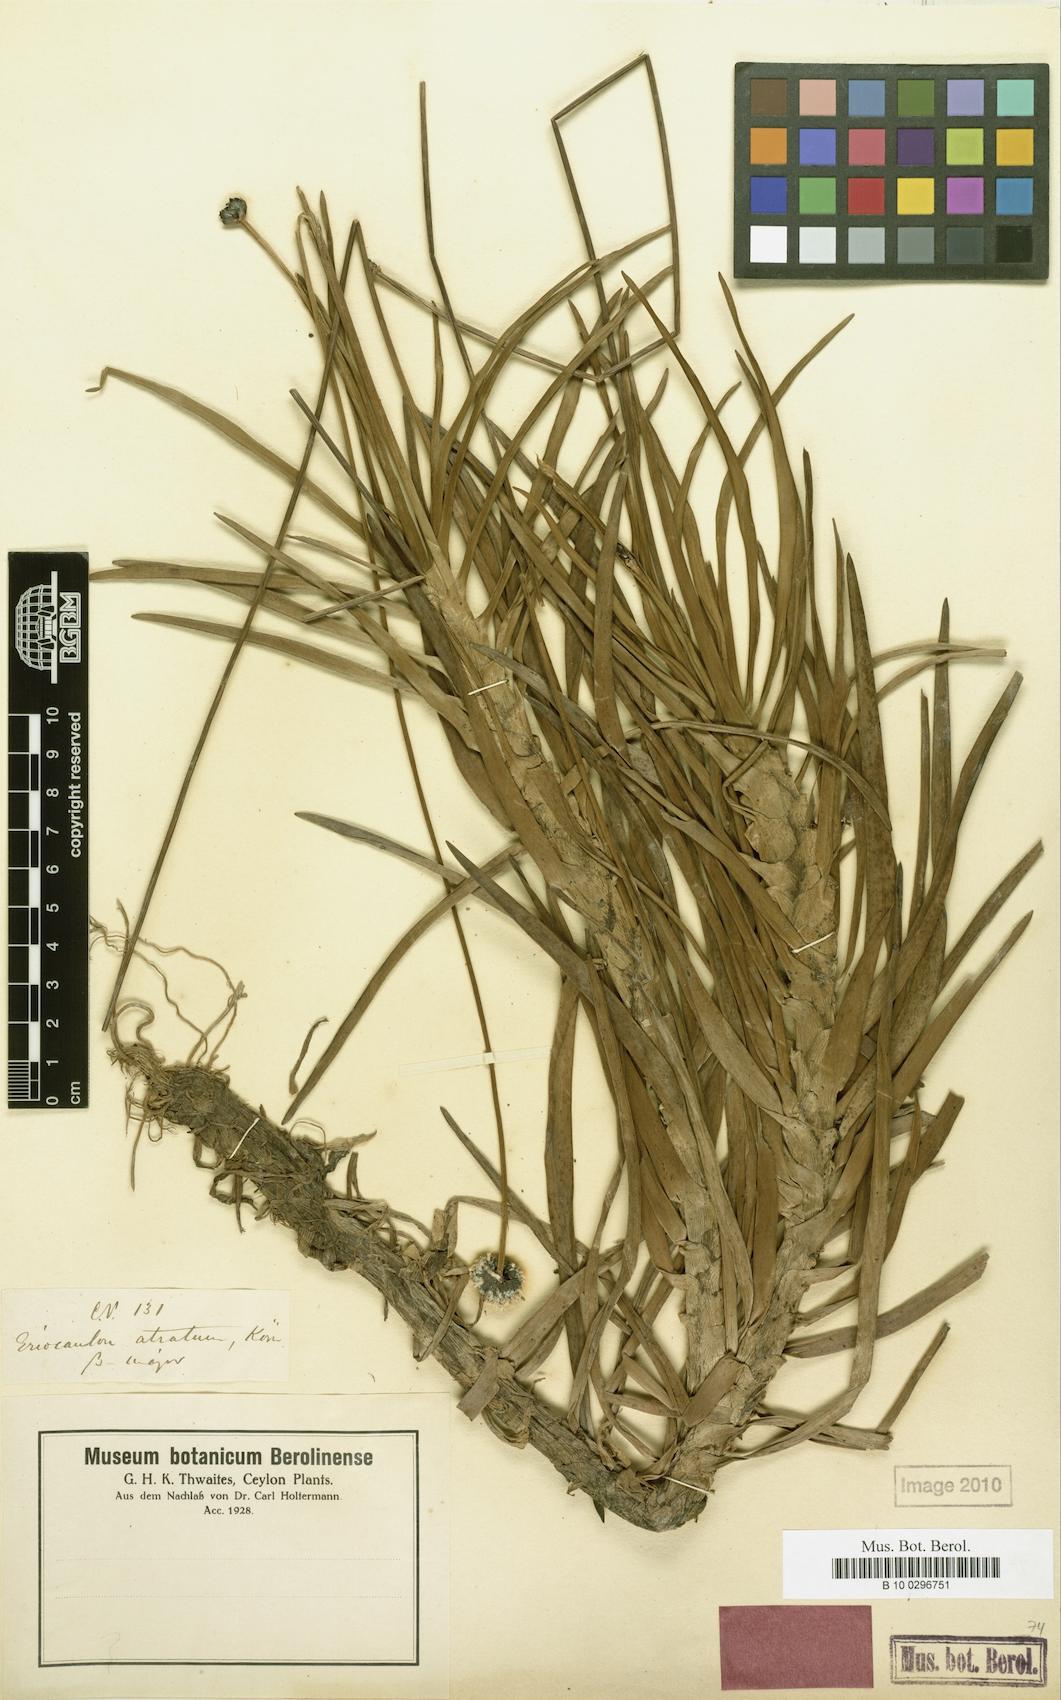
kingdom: Plantae
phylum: Tracheophyta
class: Liliopsida
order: Poales
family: Eriocaulaceae
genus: Eriocaulon
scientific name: Eriocaulon philippo-coburgii
